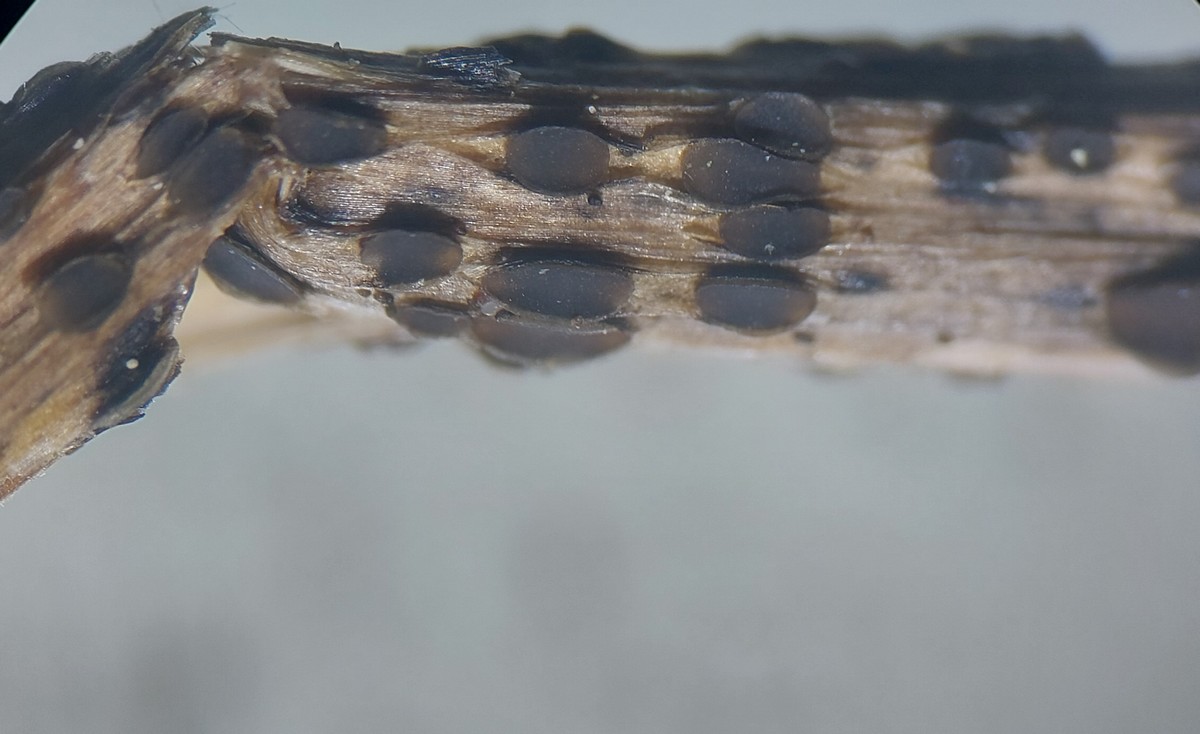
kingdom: Fungi
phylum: Ascomycota
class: Leotiomycetes
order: Helotiales
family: Ploettnerulaceae
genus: Pyrenopeziza
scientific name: Pyrenopeziza petiolaris
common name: ahorn-kerneskive
